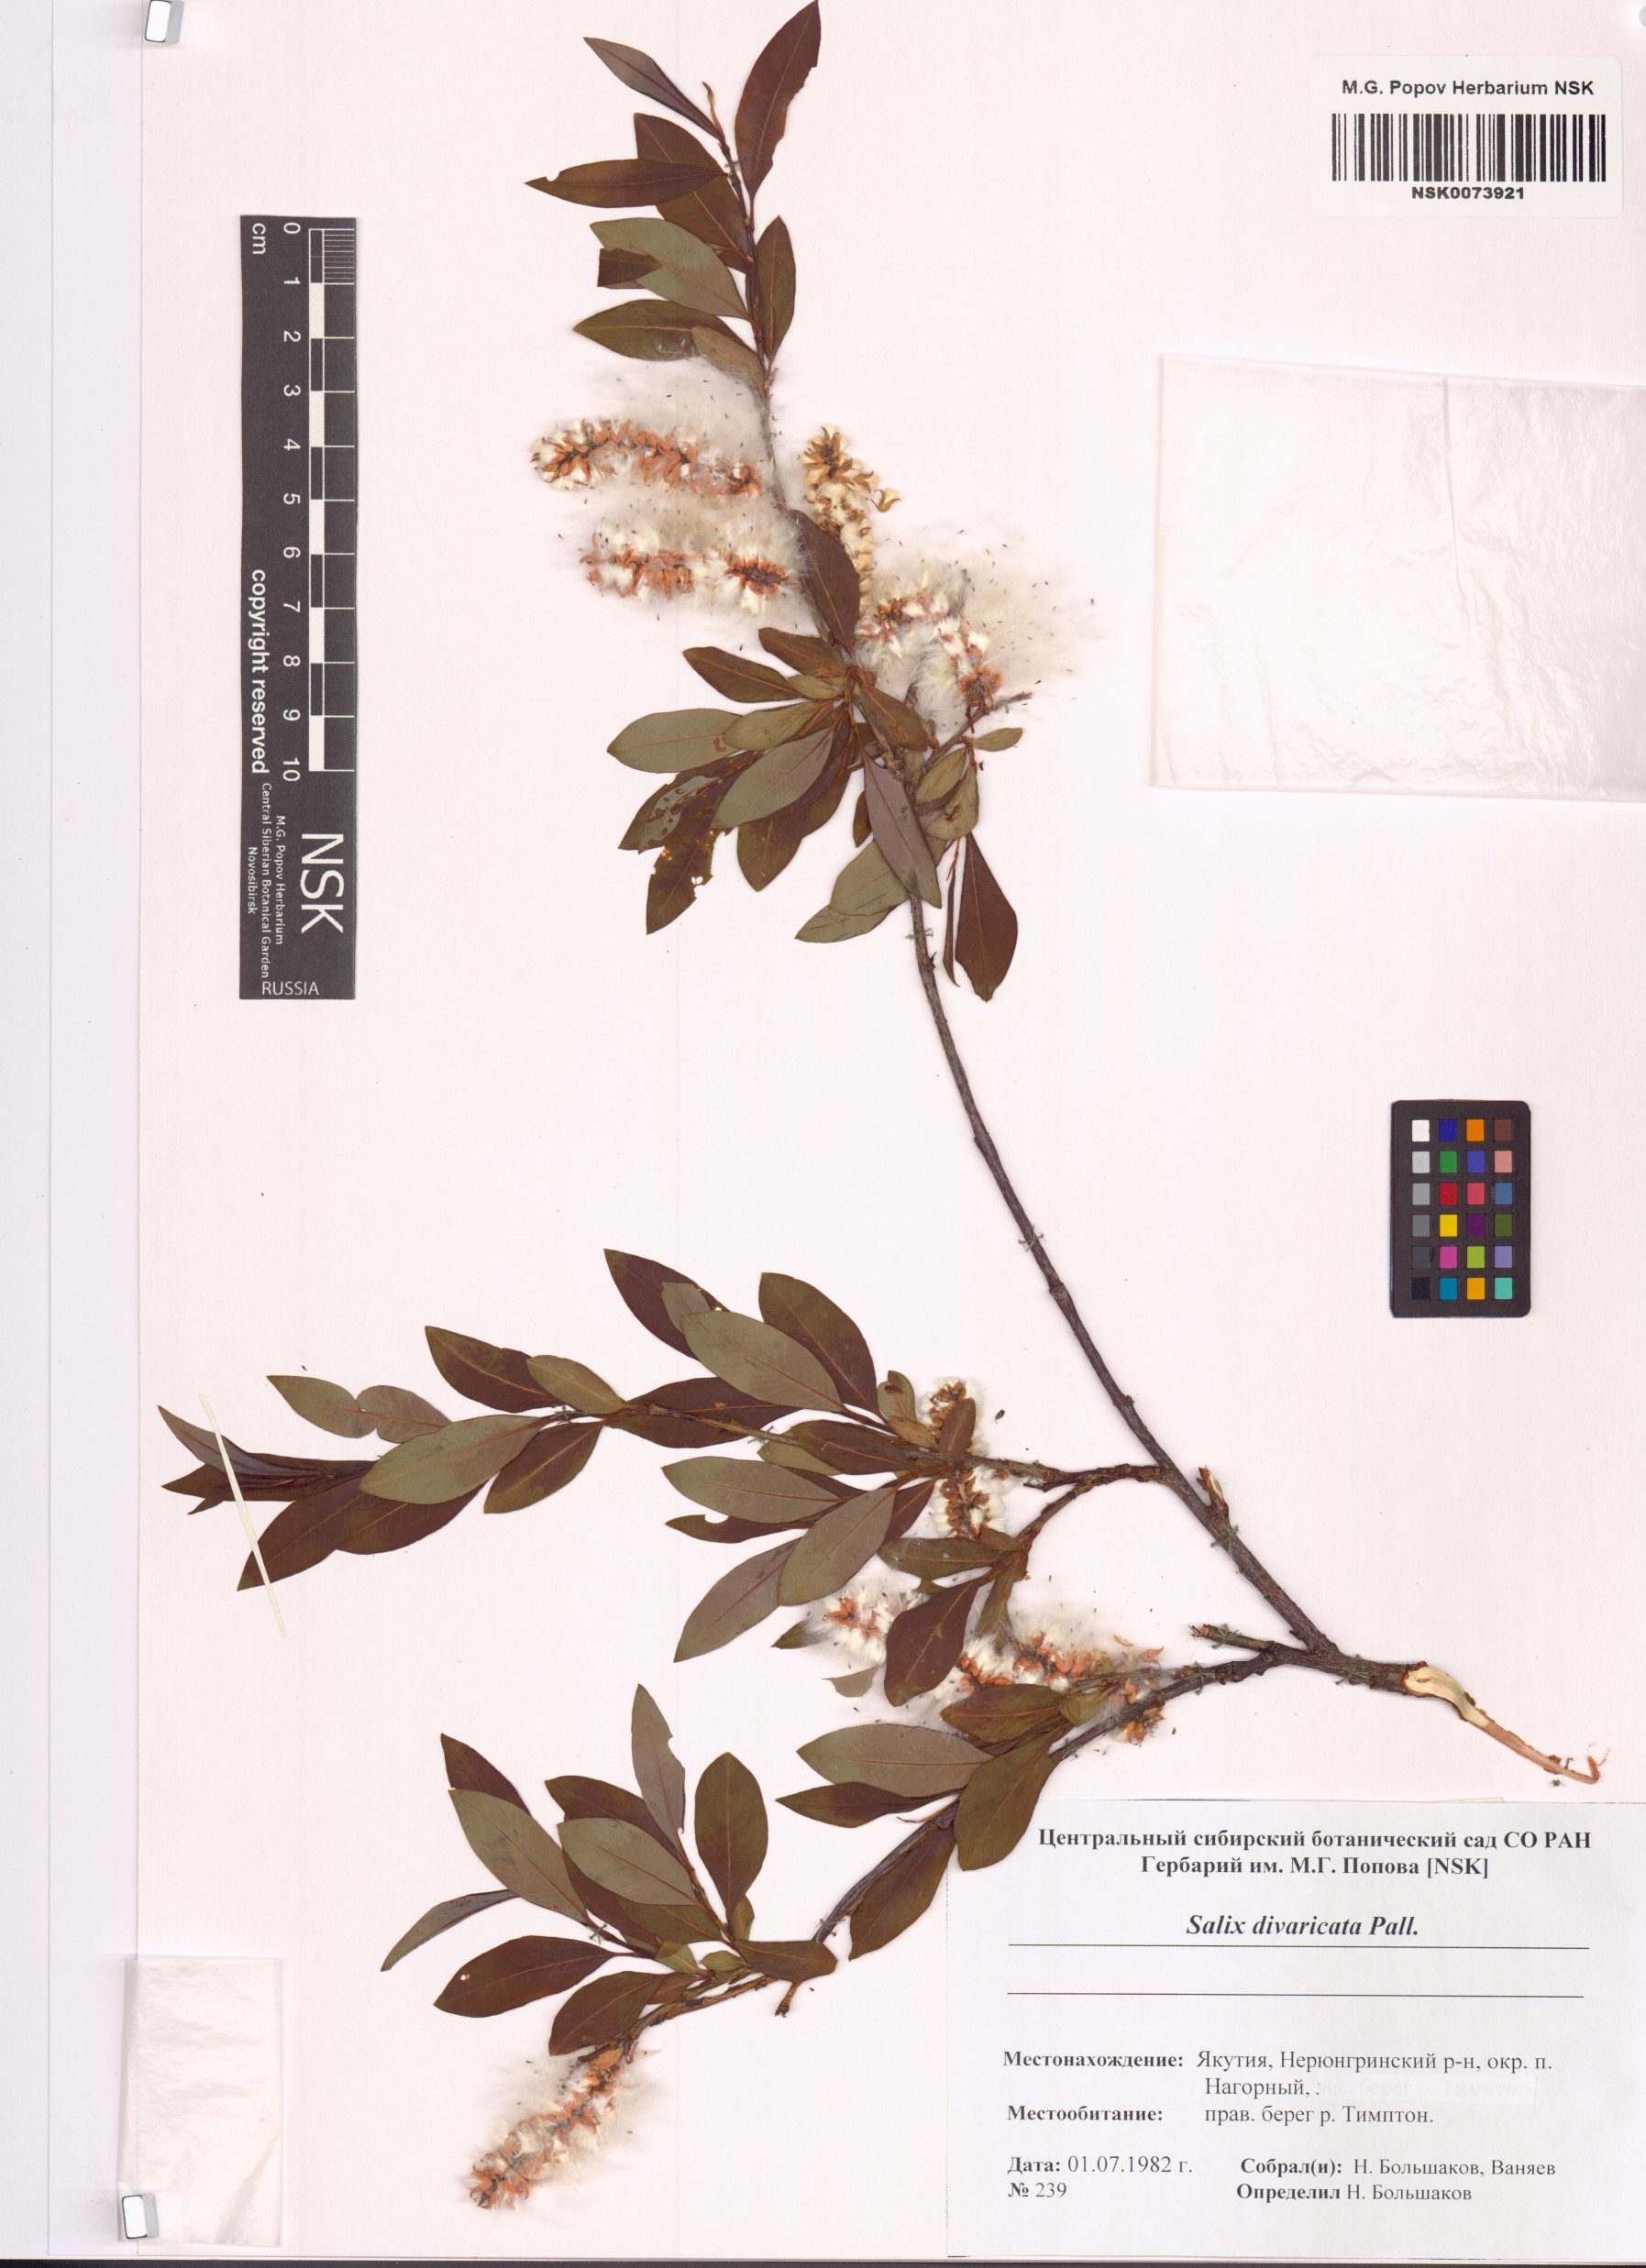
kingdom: Plantae
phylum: Tracheophyta
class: Magnoliopsida
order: Malpighiales
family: Salicaceae
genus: Salix
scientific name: Salix divaricata
